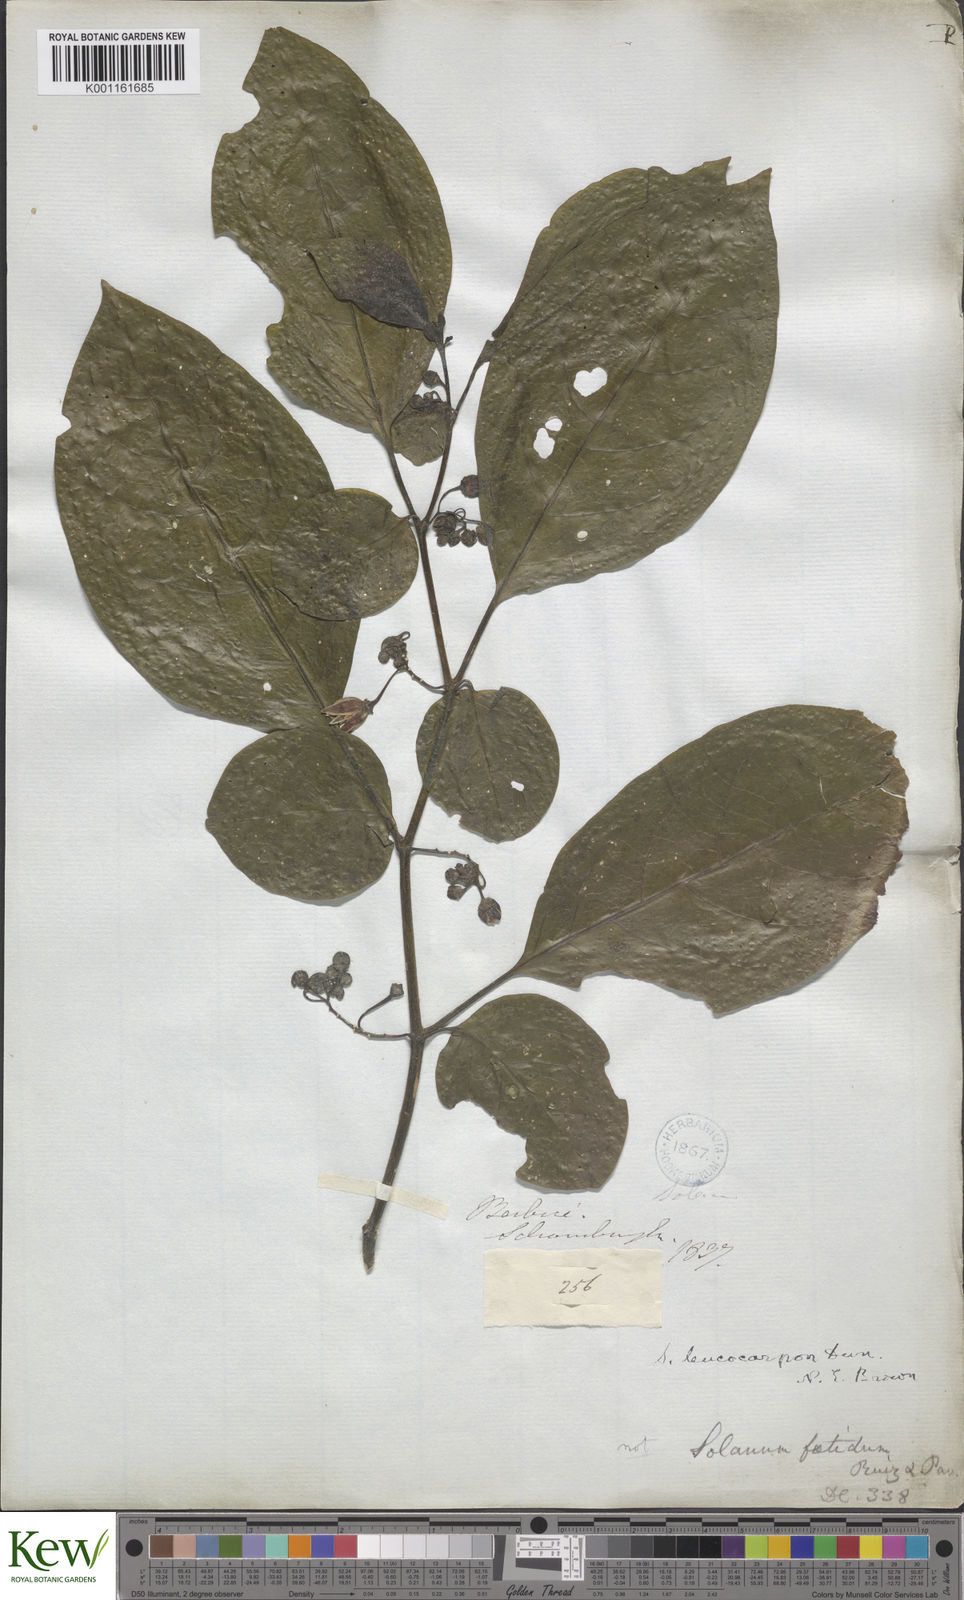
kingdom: Plantae
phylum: Tracheophyta
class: Magnoliopsida
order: Solanales
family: Solanaceae
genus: Solanum
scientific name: Solanum leucocarpon
